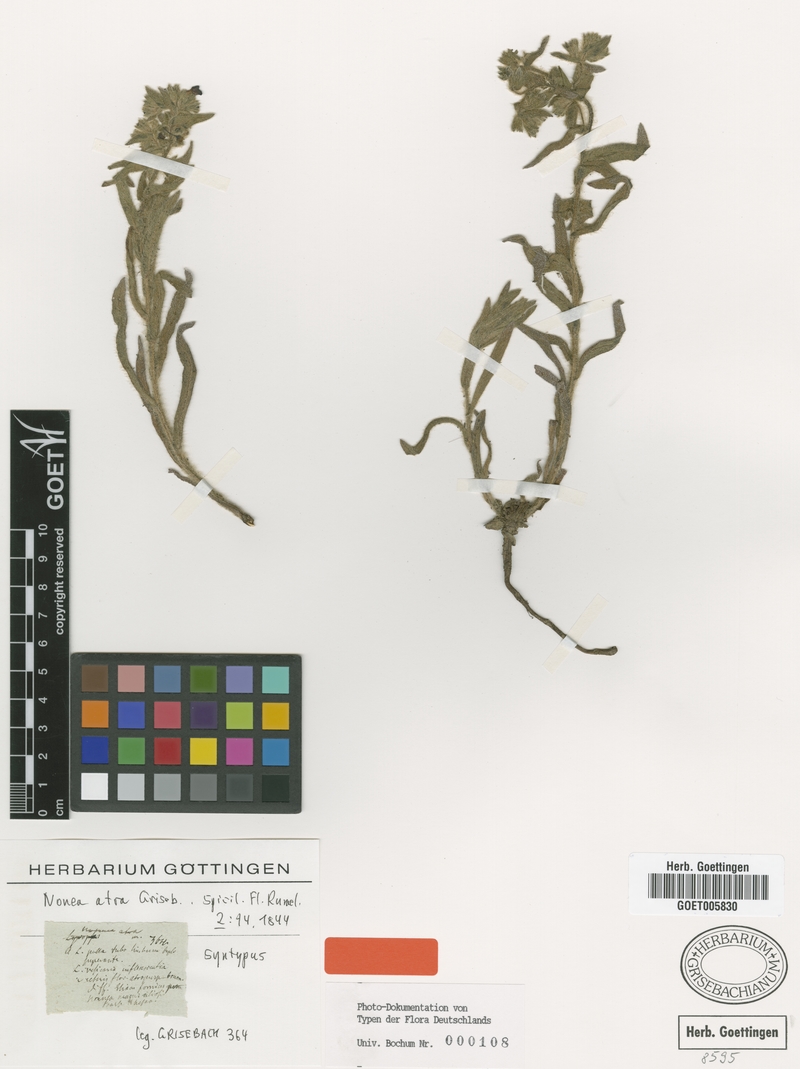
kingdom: Plantae
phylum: Tracheophyta
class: Magnoliopsida
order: Boraginales
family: Boraginaceae
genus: Nonea
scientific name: Nonea atra
